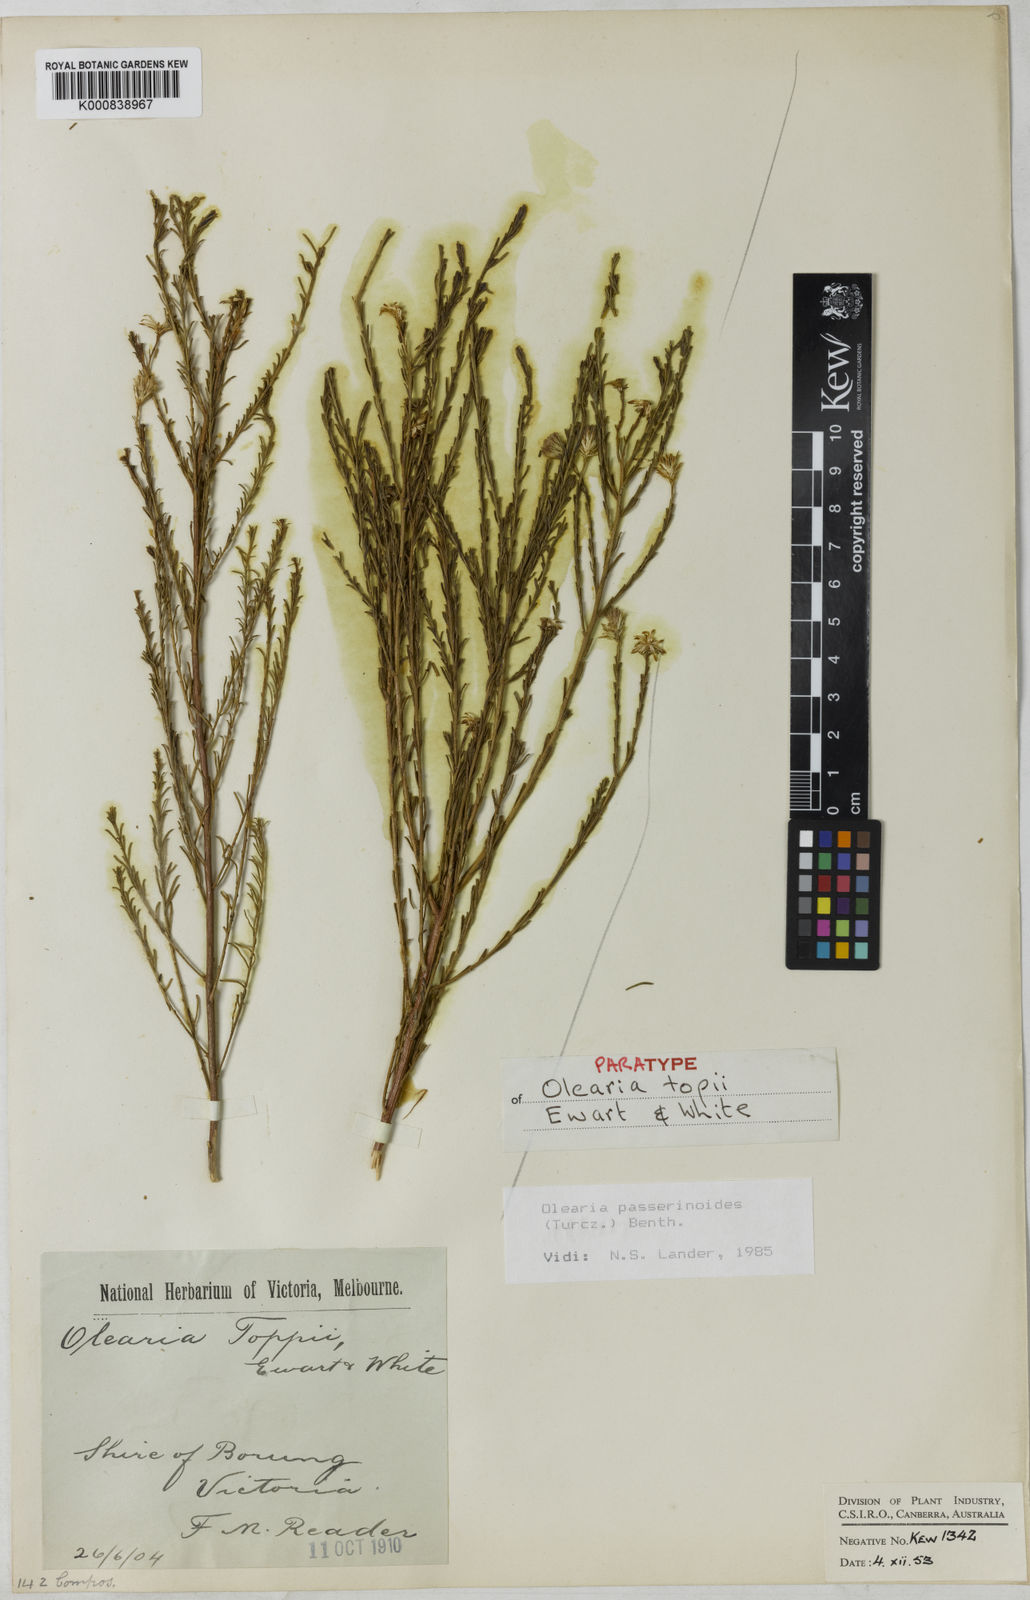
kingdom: Plantae
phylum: Tracheophyta
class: Magnoliopsida
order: Asterales
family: Asteraceae
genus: Olearia
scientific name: Olearia passerinoides
